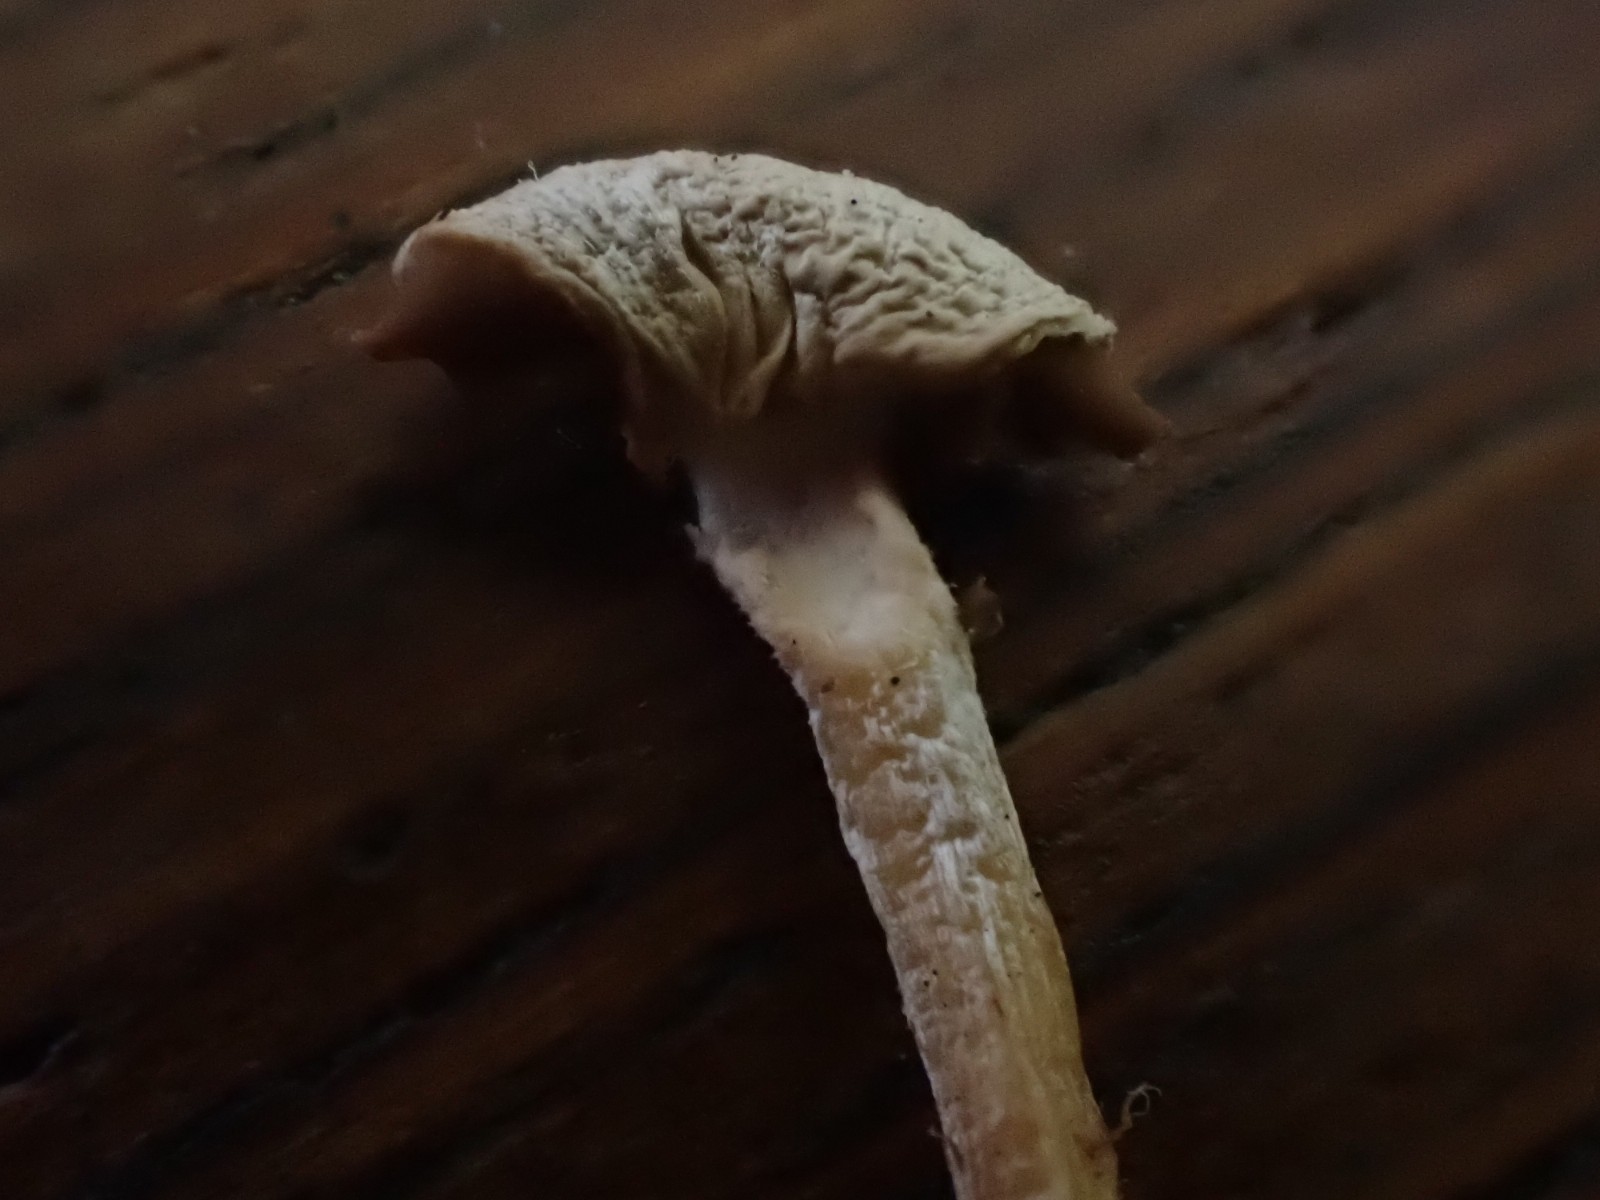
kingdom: Fungi
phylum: Basidiomycota
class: Agaricomycetes
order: Agaricales
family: Inocybaceae
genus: Inocybe
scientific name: Inocybe
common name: almindelig trævlhat
